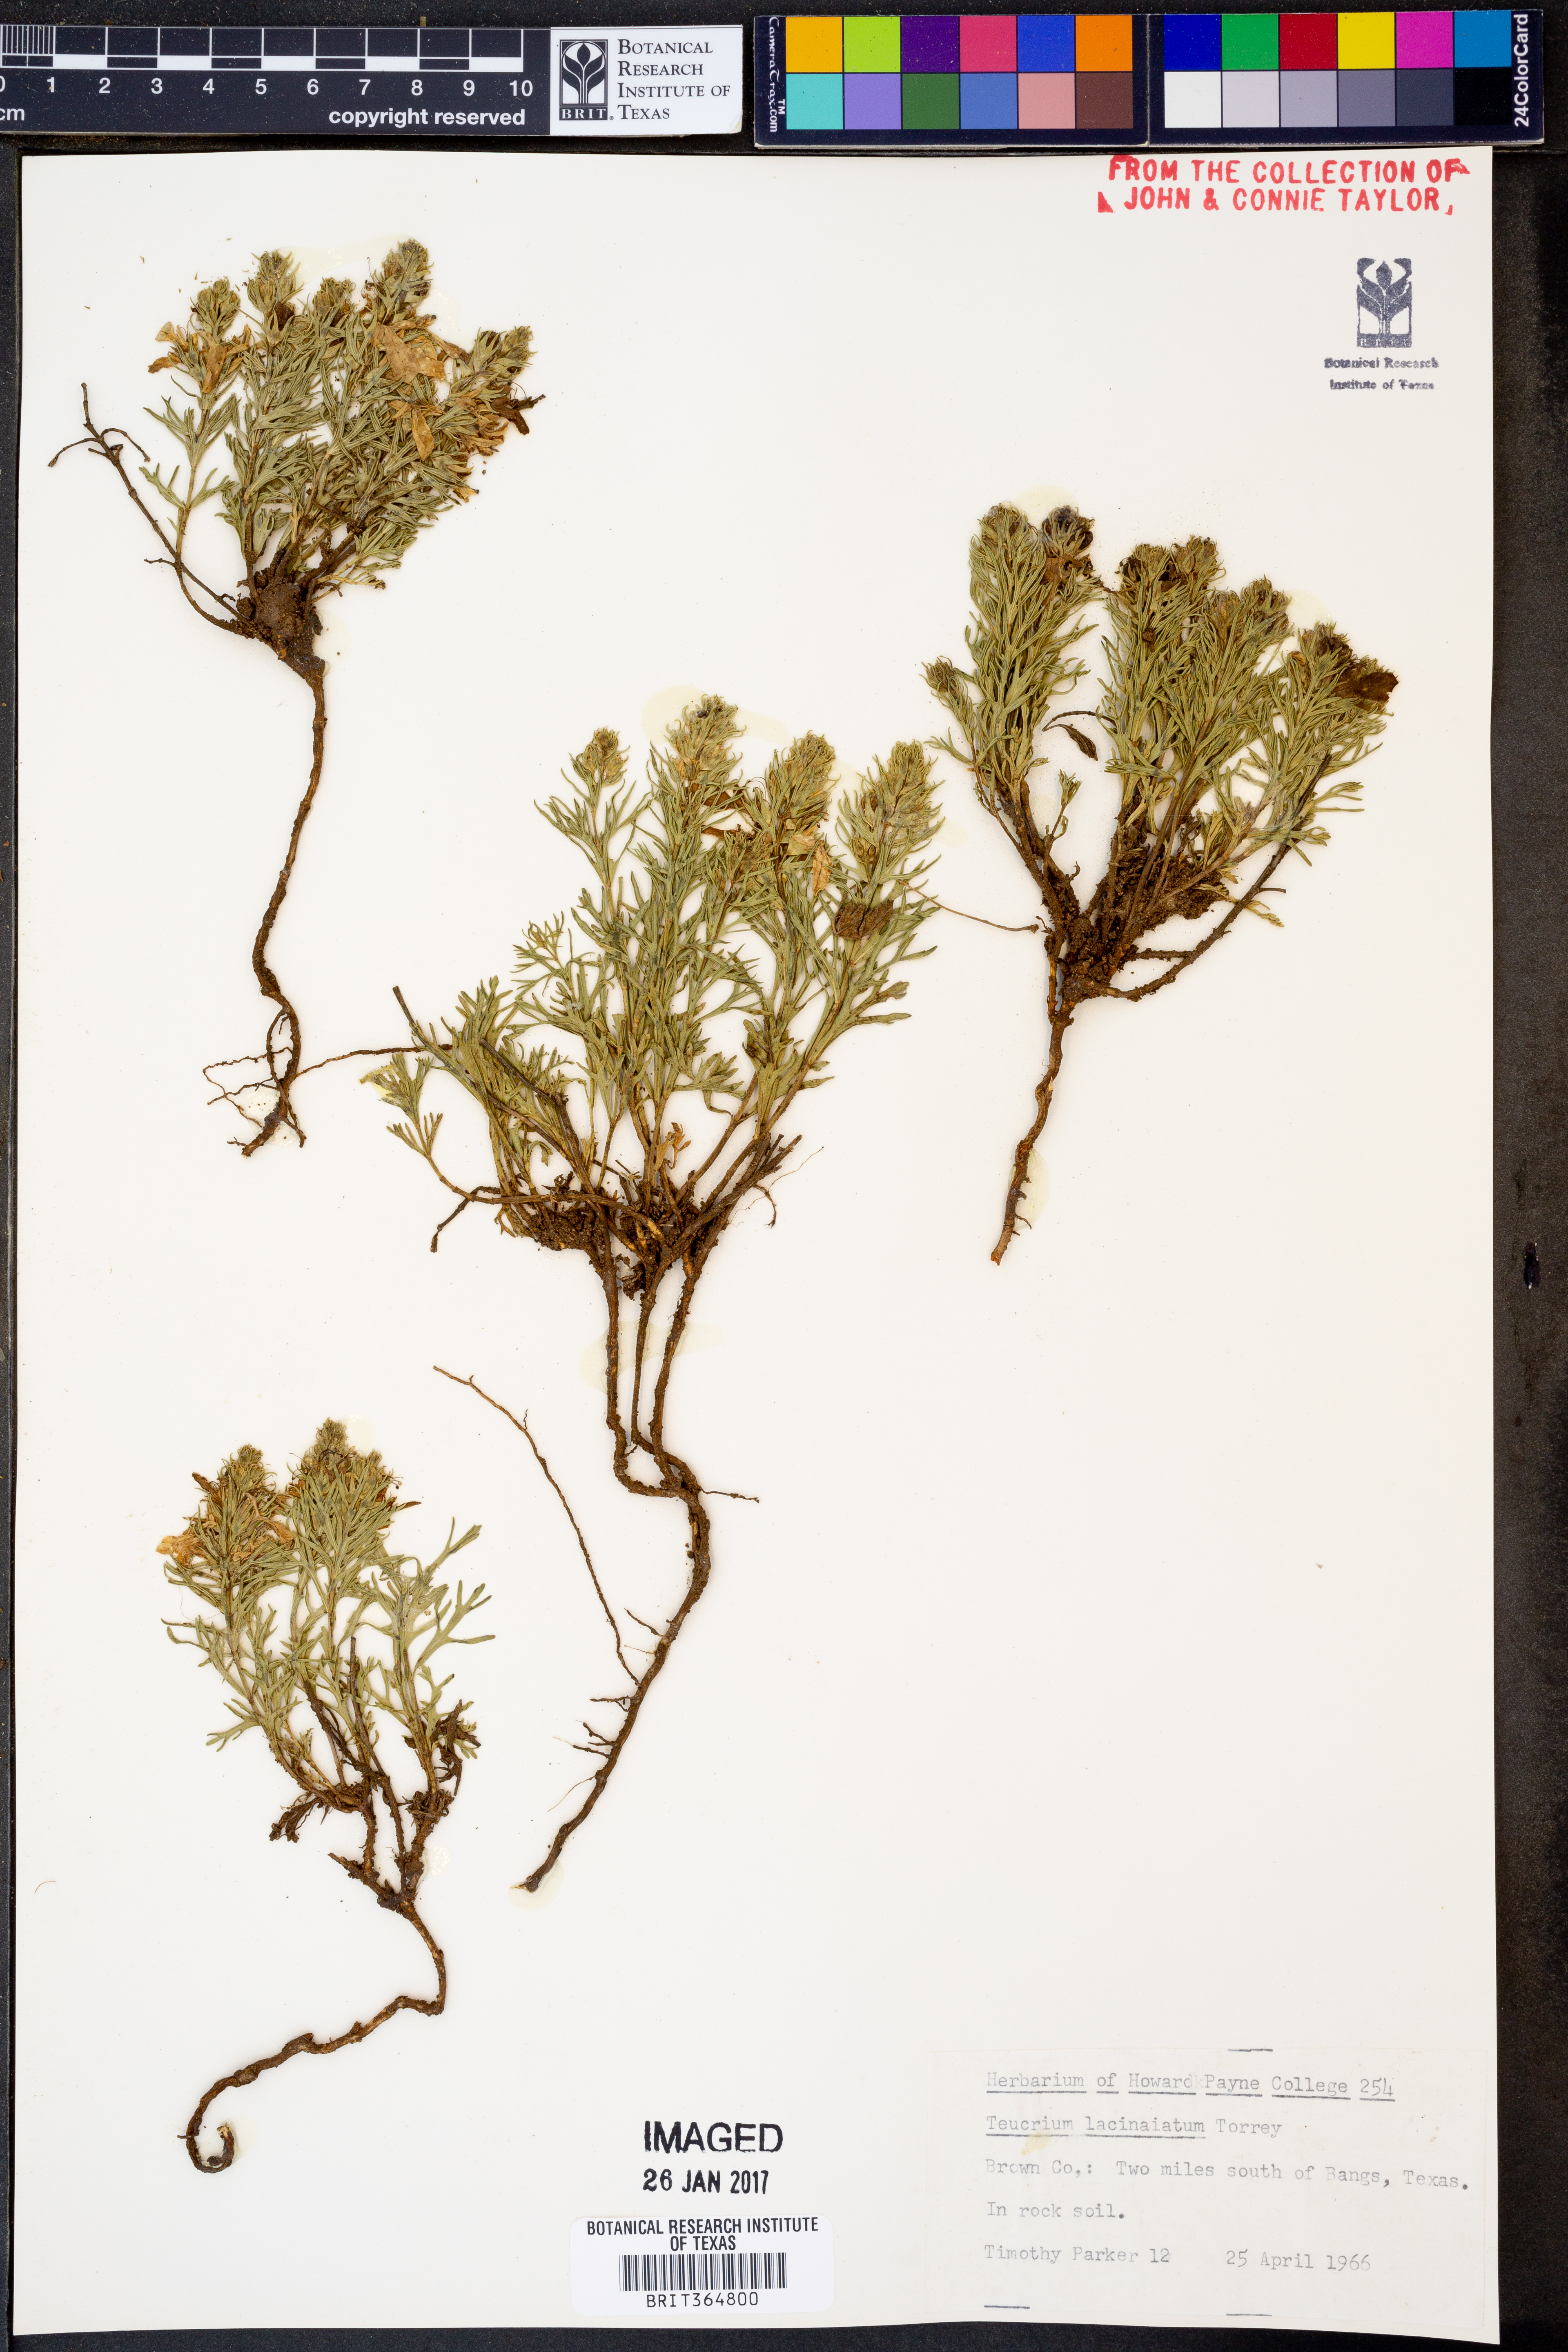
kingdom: Plantae
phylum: Tracheophyta
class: Magnoliopsida
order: Lamiales
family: Lamiaceae
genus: Teucrium
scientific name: Teucrium laciniatum
